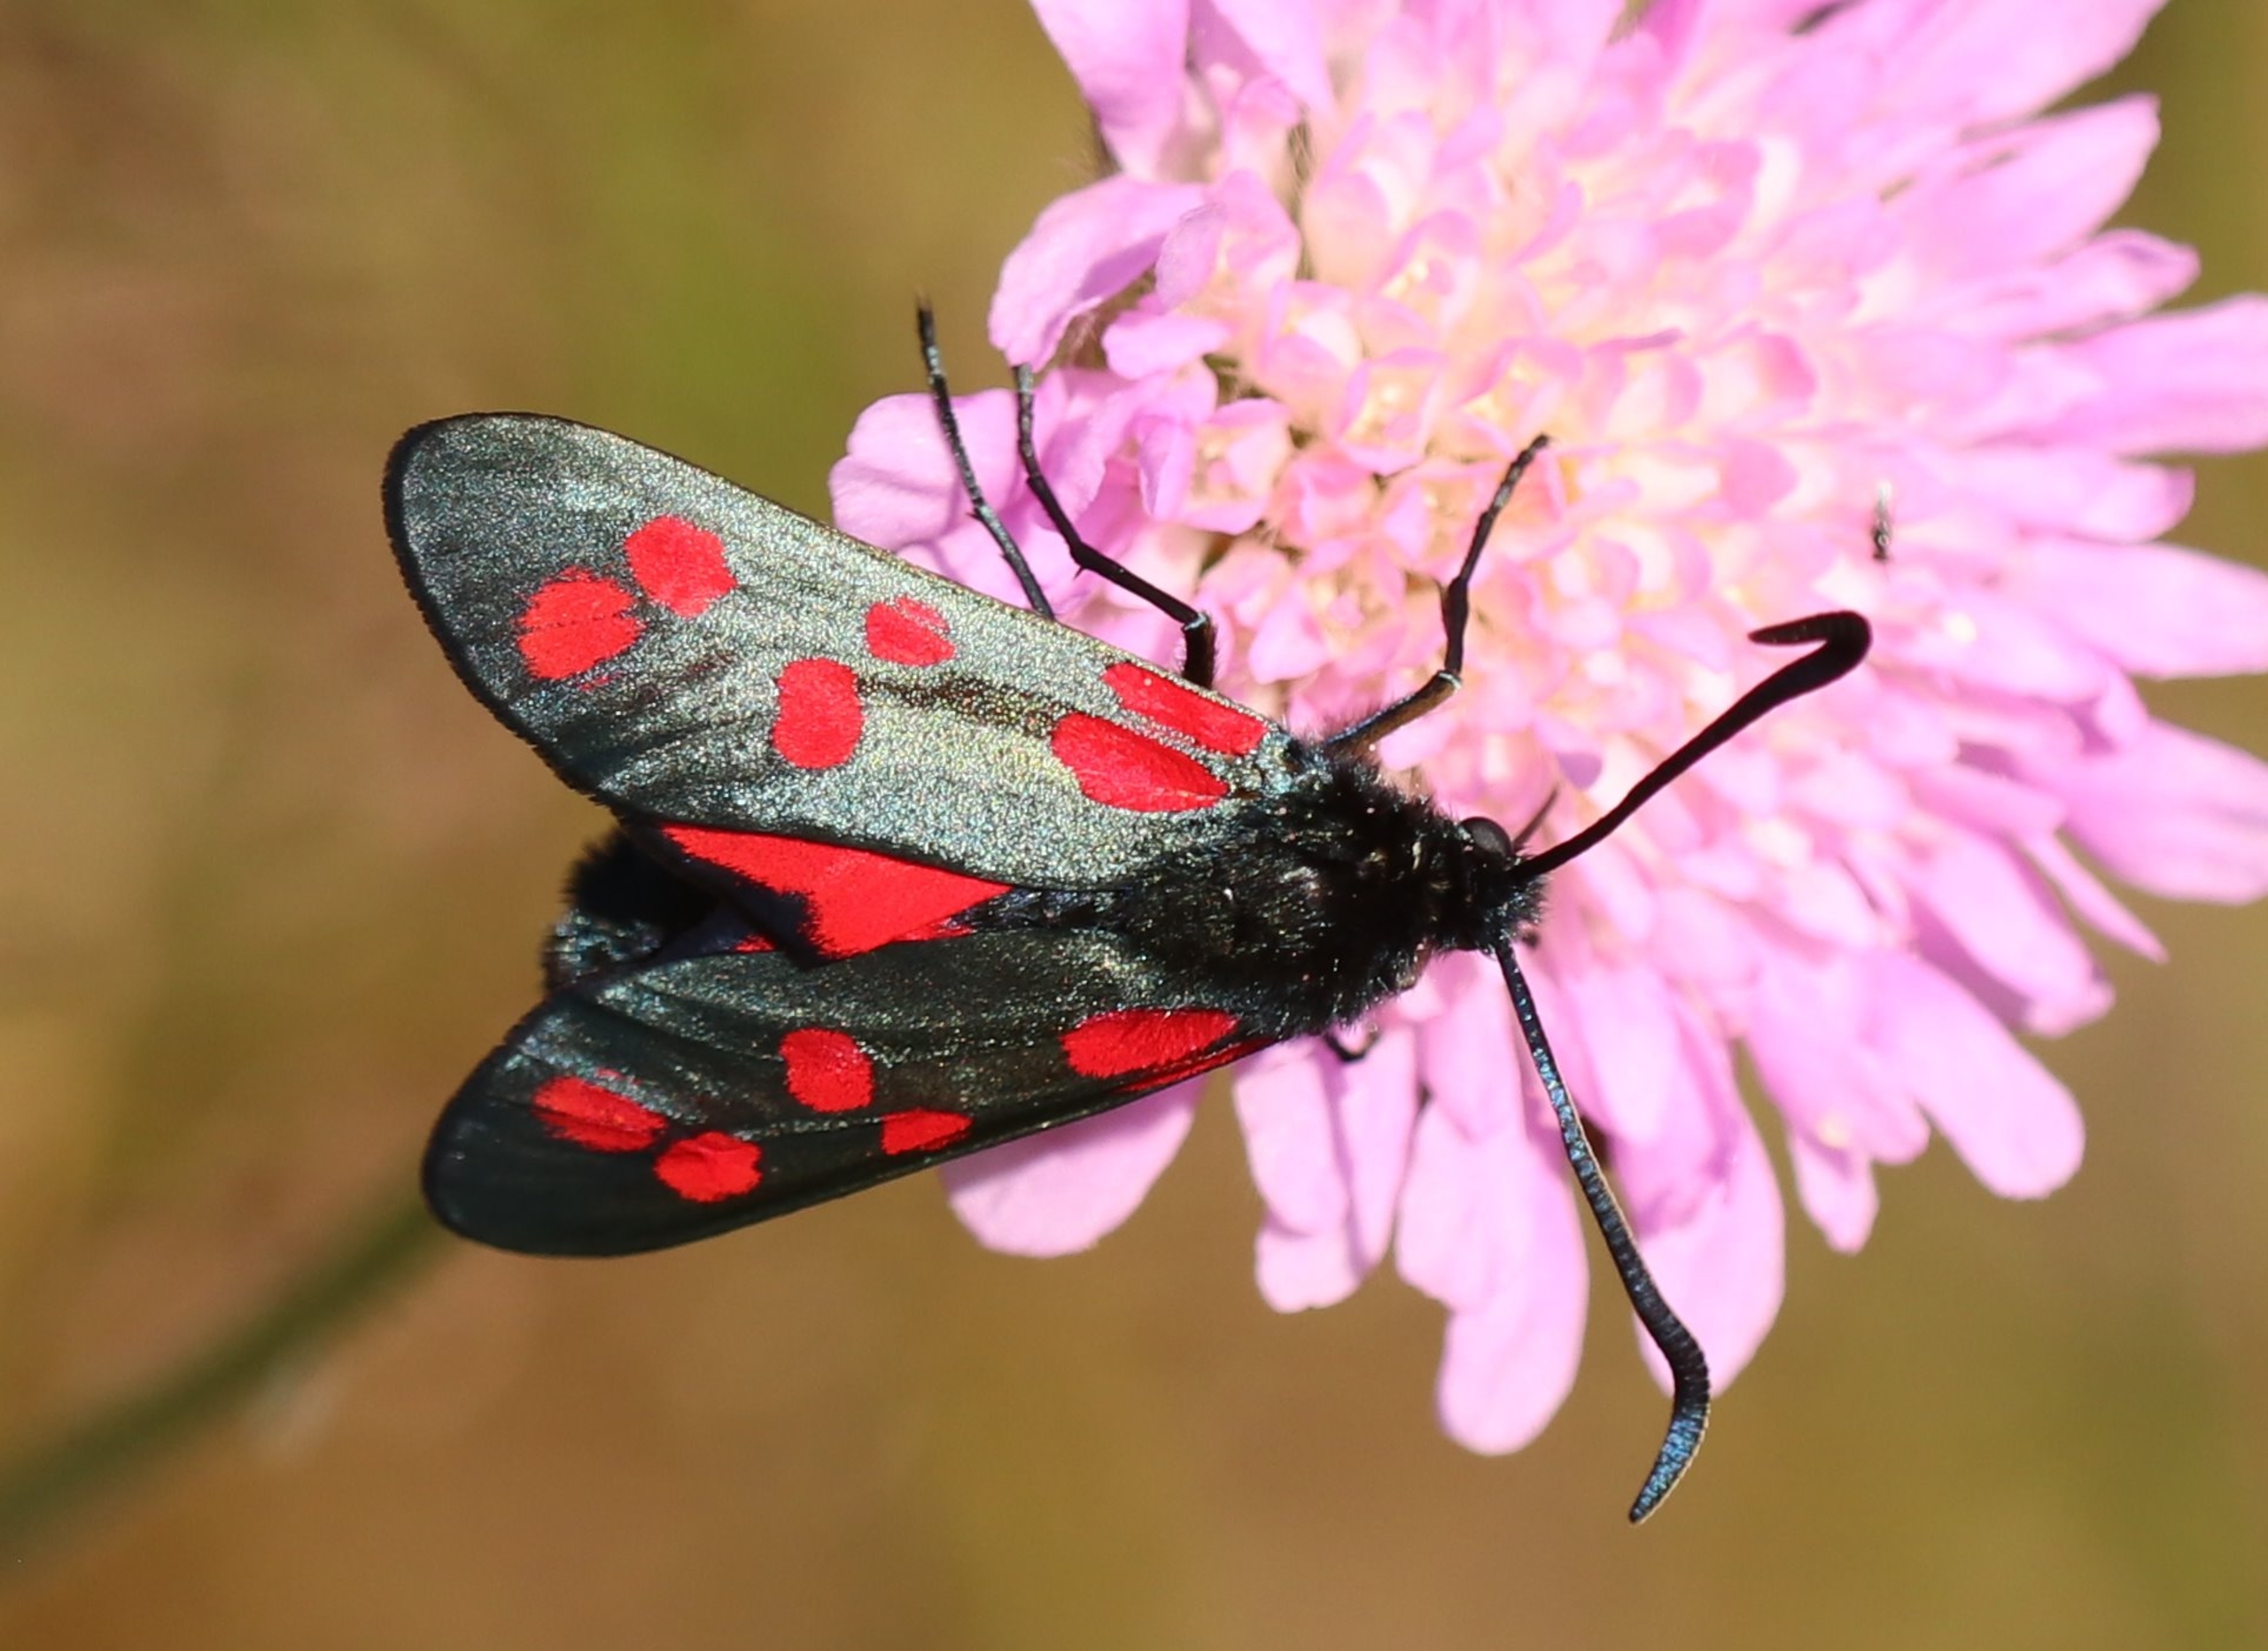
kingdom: Animalia
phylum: Arthropoda
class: Insecta
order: Lepidoptera
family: Zygaenidae
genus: Zygaena
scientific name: Zygaena filipendulae
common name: Seksplettet køllesværmer
